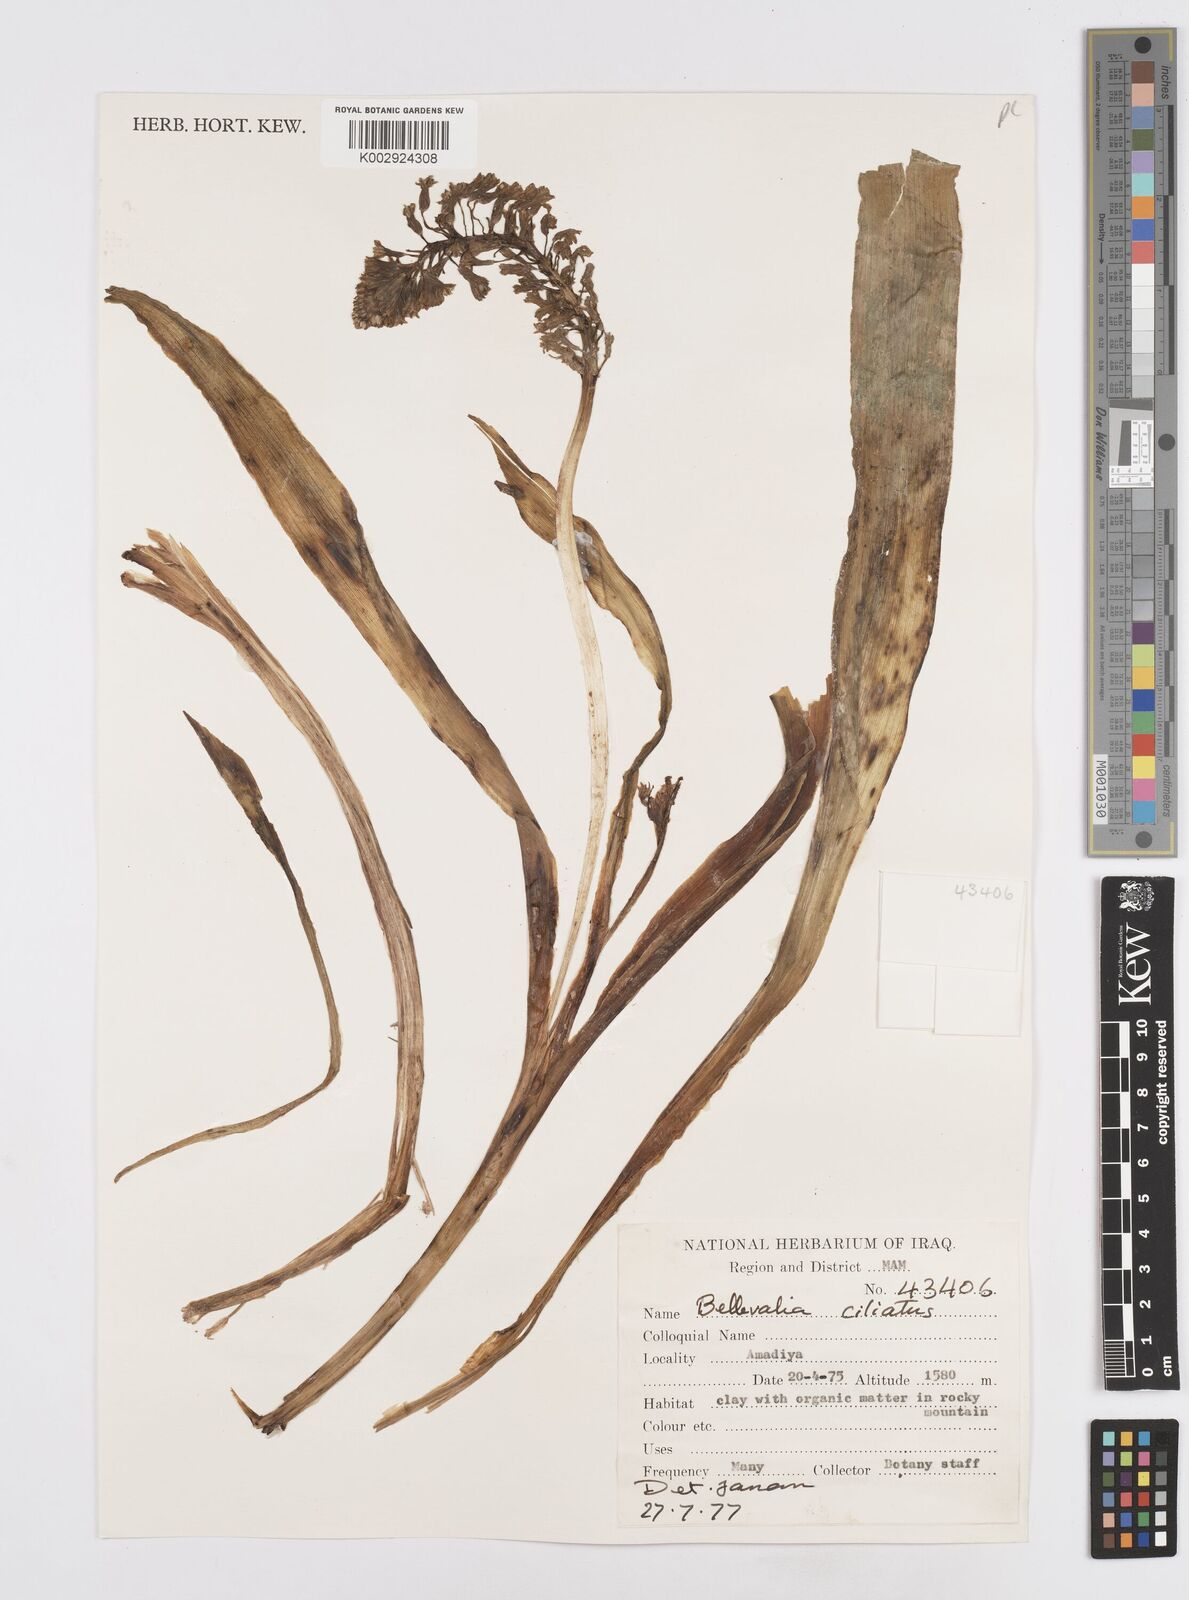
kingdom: Plantae
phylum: Tracheophyta
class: Liliopsida
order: Asparagales
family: Asparagaceae
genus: Bellevalia
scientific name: Bellevalia ciliata
